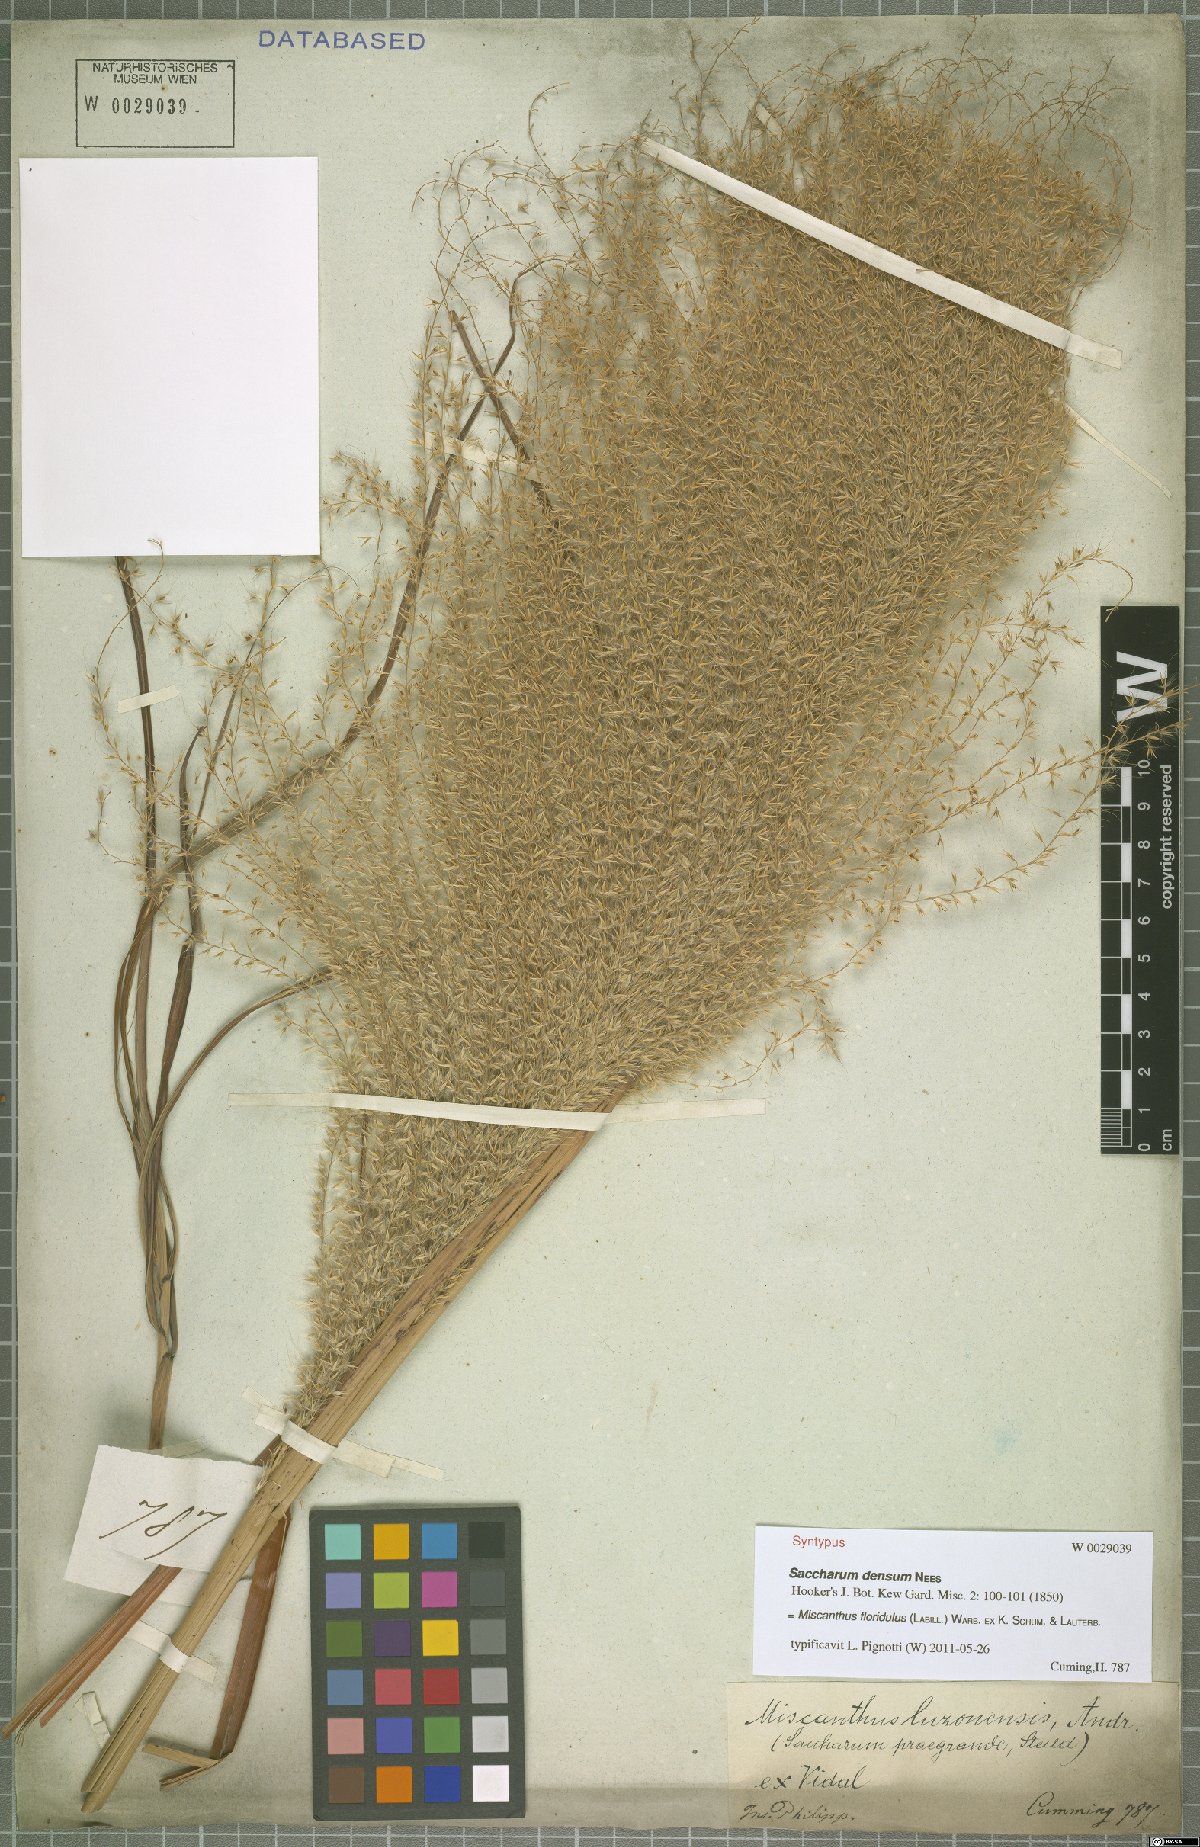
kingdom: Plantae
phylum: Tracheophyta
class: Liliopsida
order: Poales
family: Poaceae
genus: Miscanthus
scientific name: Miscanthus floridulus
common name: Pacific island silvergrass
